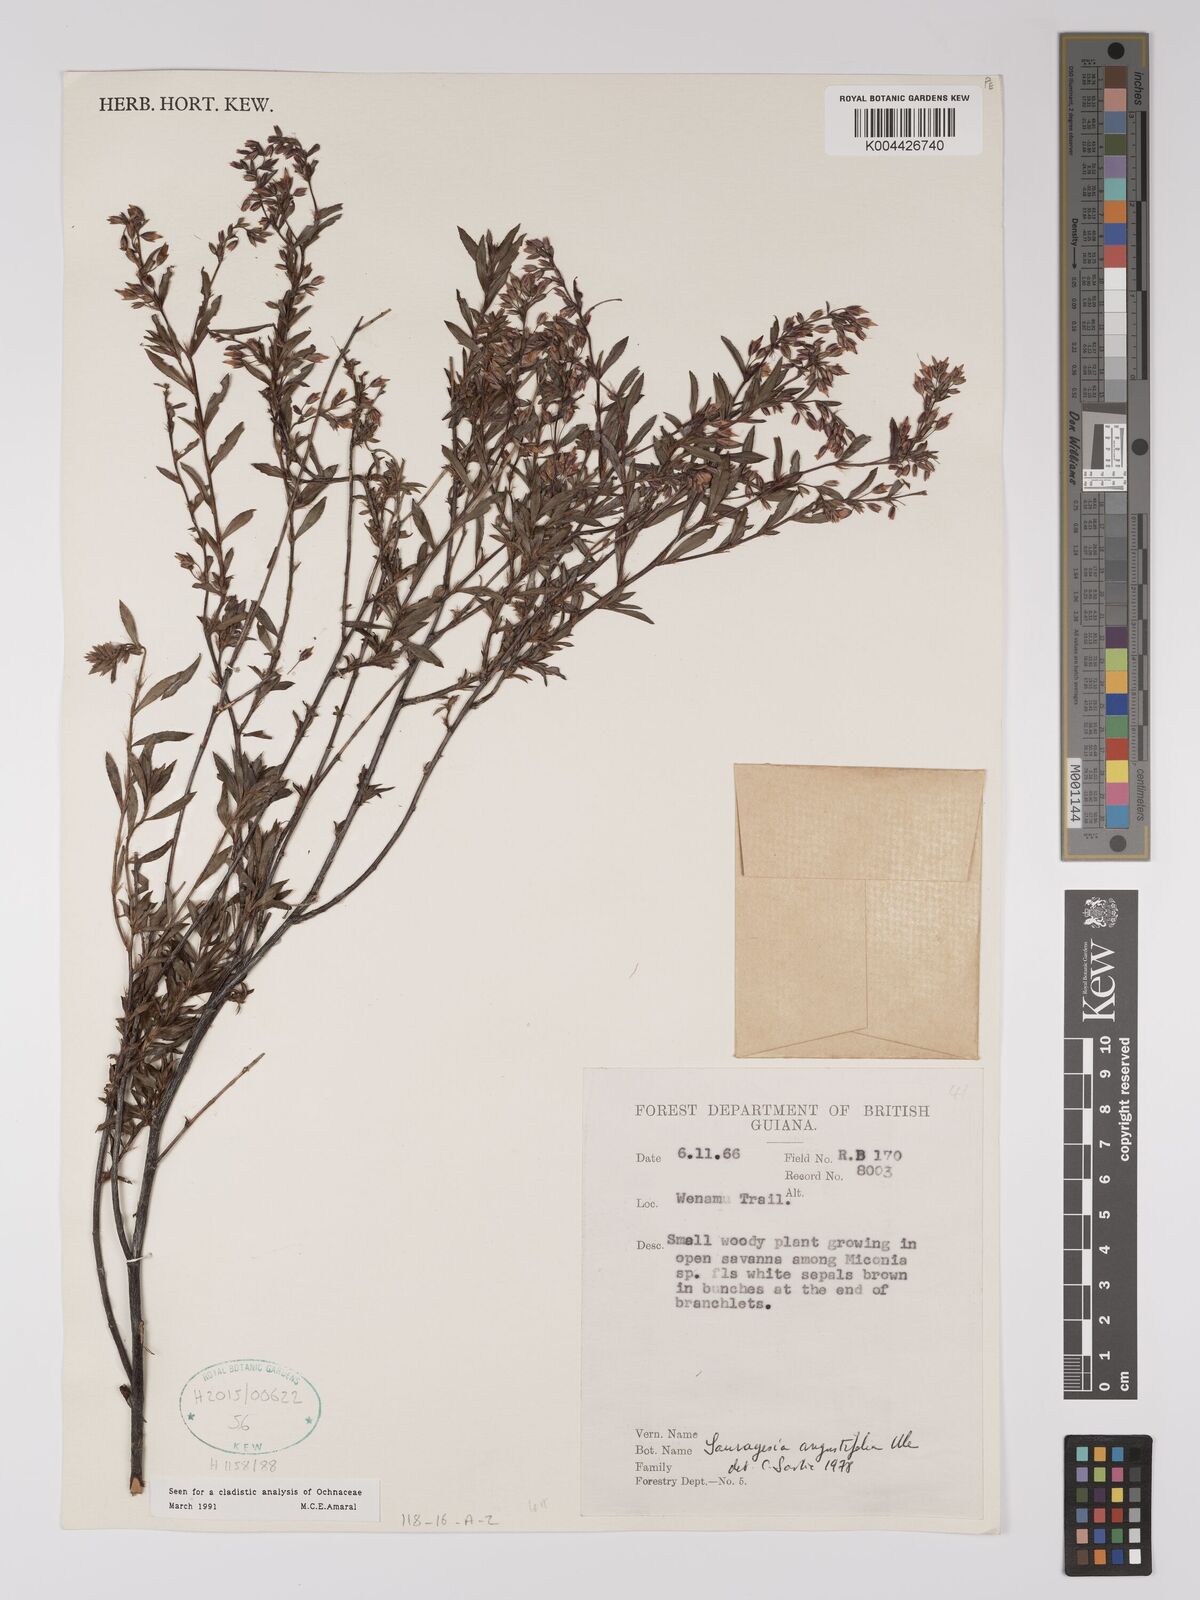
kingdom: Plantae
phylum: Tracheophyta
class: Magnoliopsida
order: Malpighiales
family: Ochnaceae
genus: Sauvagesia
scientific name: Sauvagesia angustifolia
